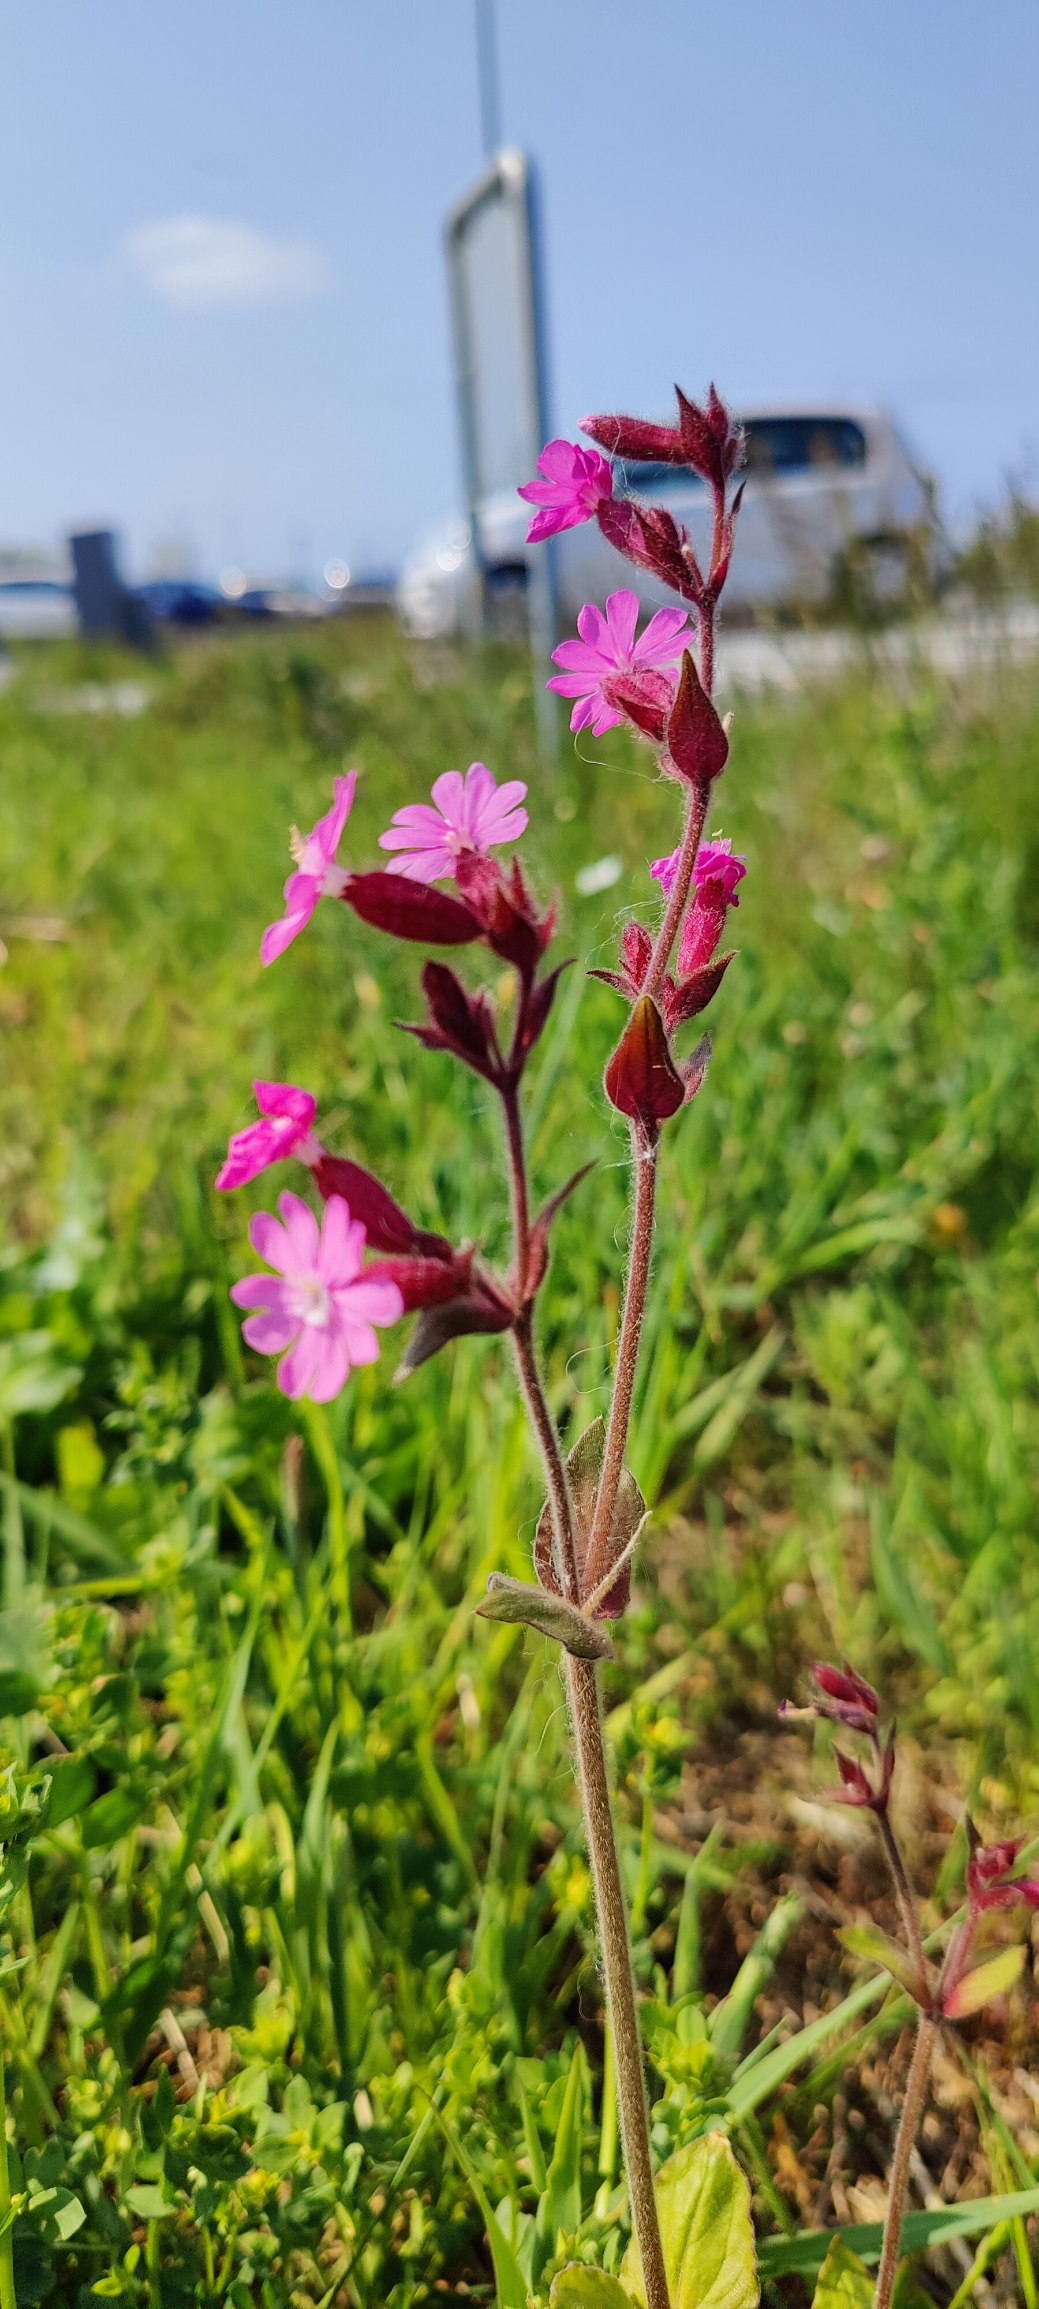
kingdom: Plantae
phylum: Tracheophyta
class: Magnoliopsida
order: Caryophyllales
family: Caryophyllaceae
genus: Silene
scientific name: Silene dioica
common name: Dagpragtstjerne
